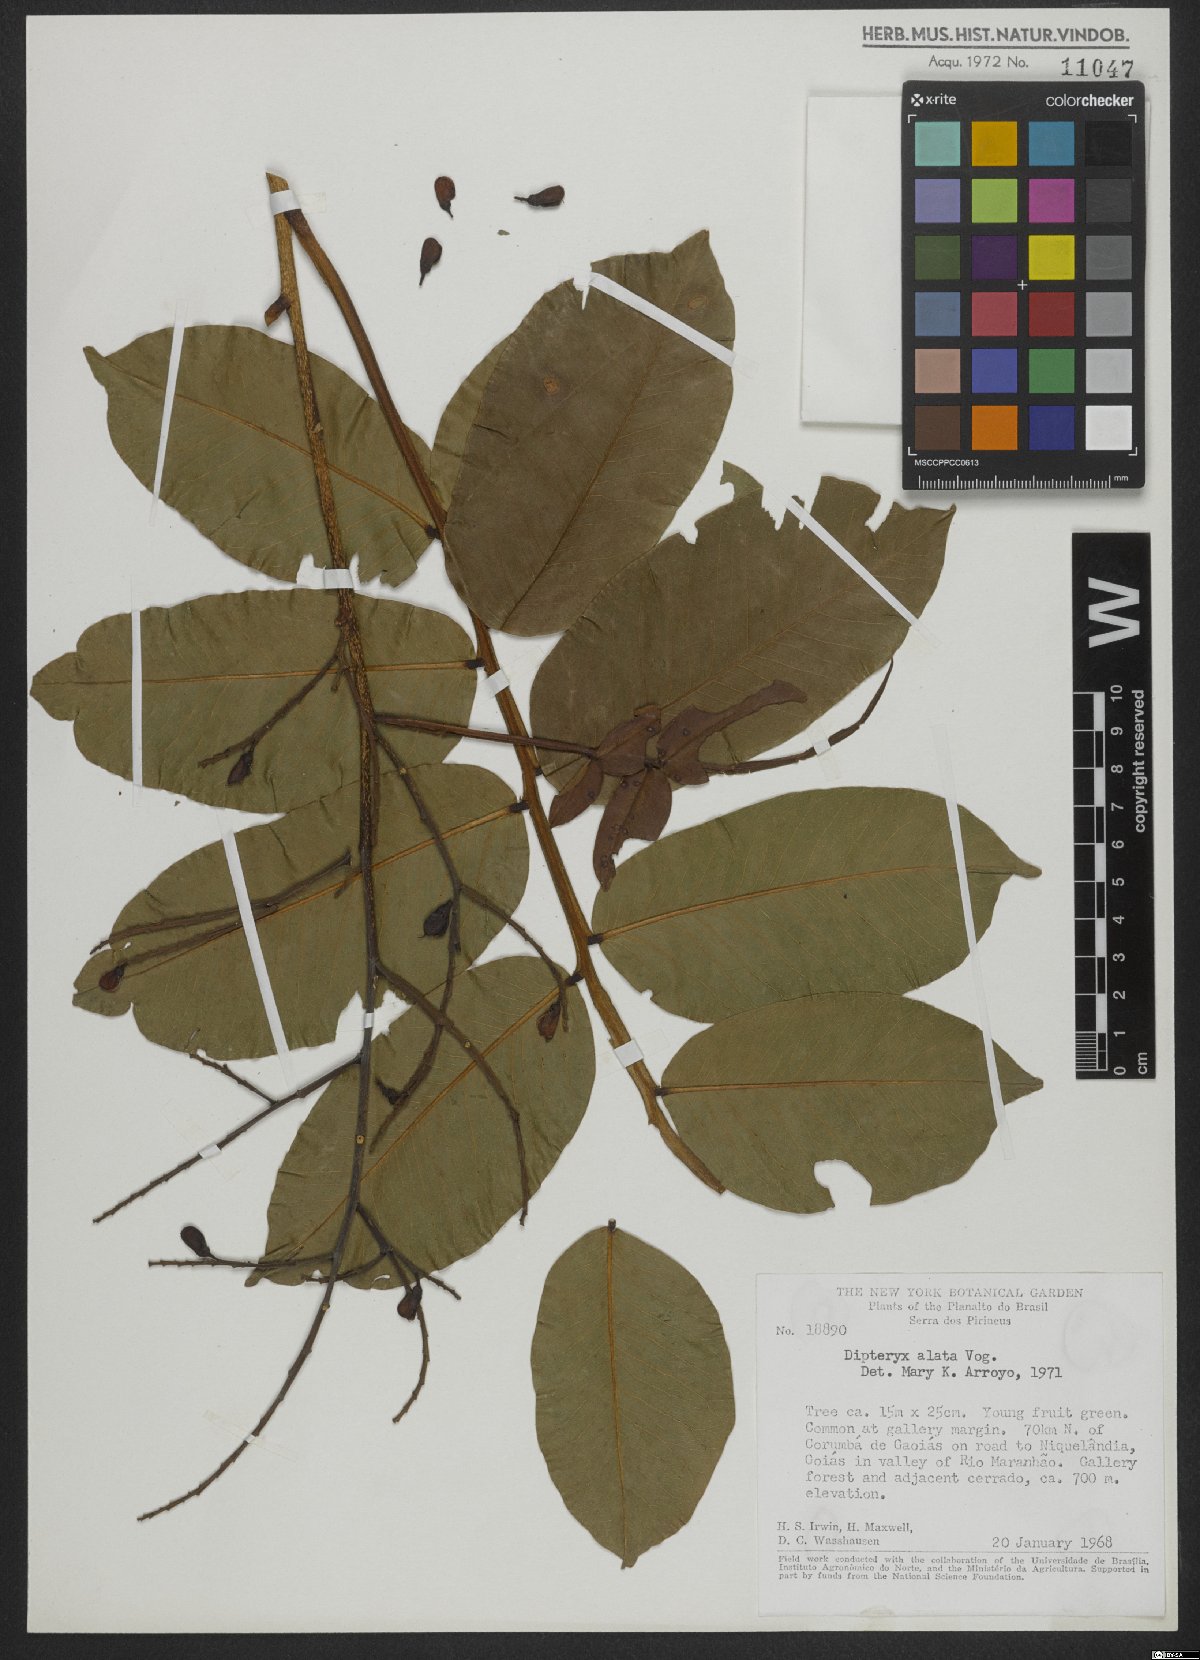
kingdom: Plantae
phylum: Tracheophyta
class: Magnoliopsida
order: Fabales
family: Fabaceae
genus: Dipteryx
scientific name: Dipteryx alata
